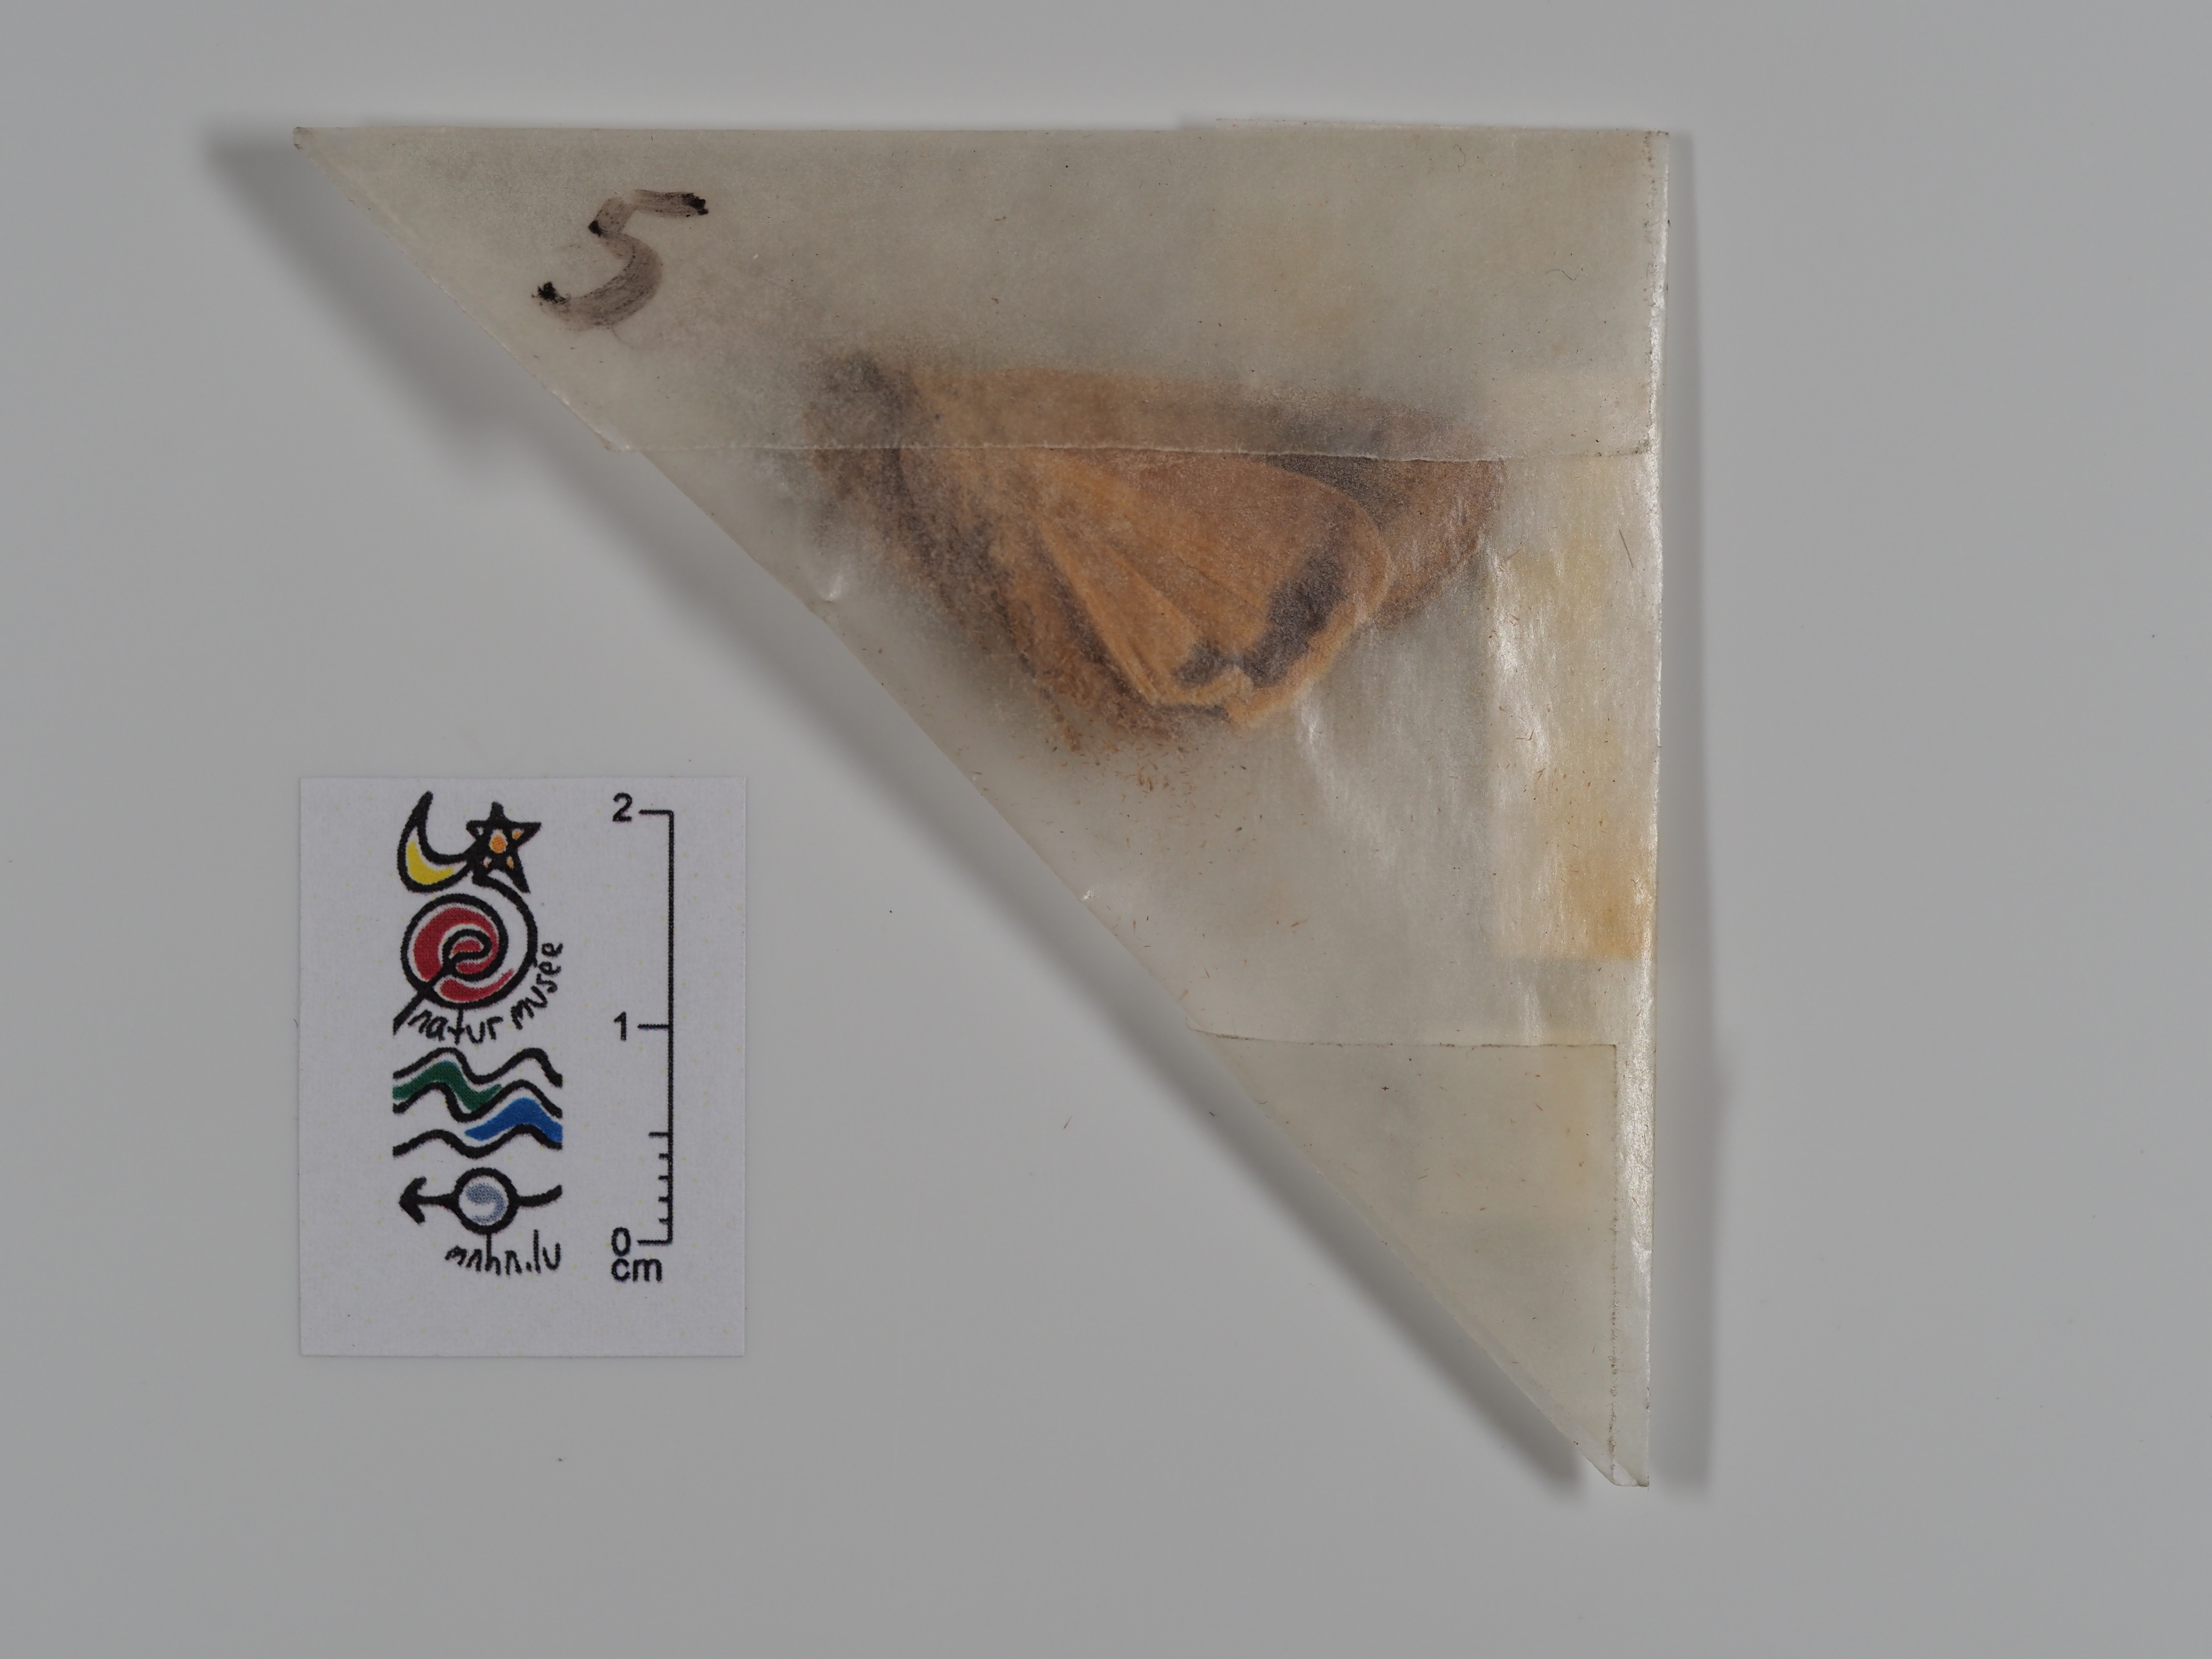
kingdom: Animalia
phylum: Arthropoda
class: Insecta
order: Lepidoptera
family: Noctuidae
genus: Noctua
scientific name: Noctua pronuba
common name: Large yellow underwing
